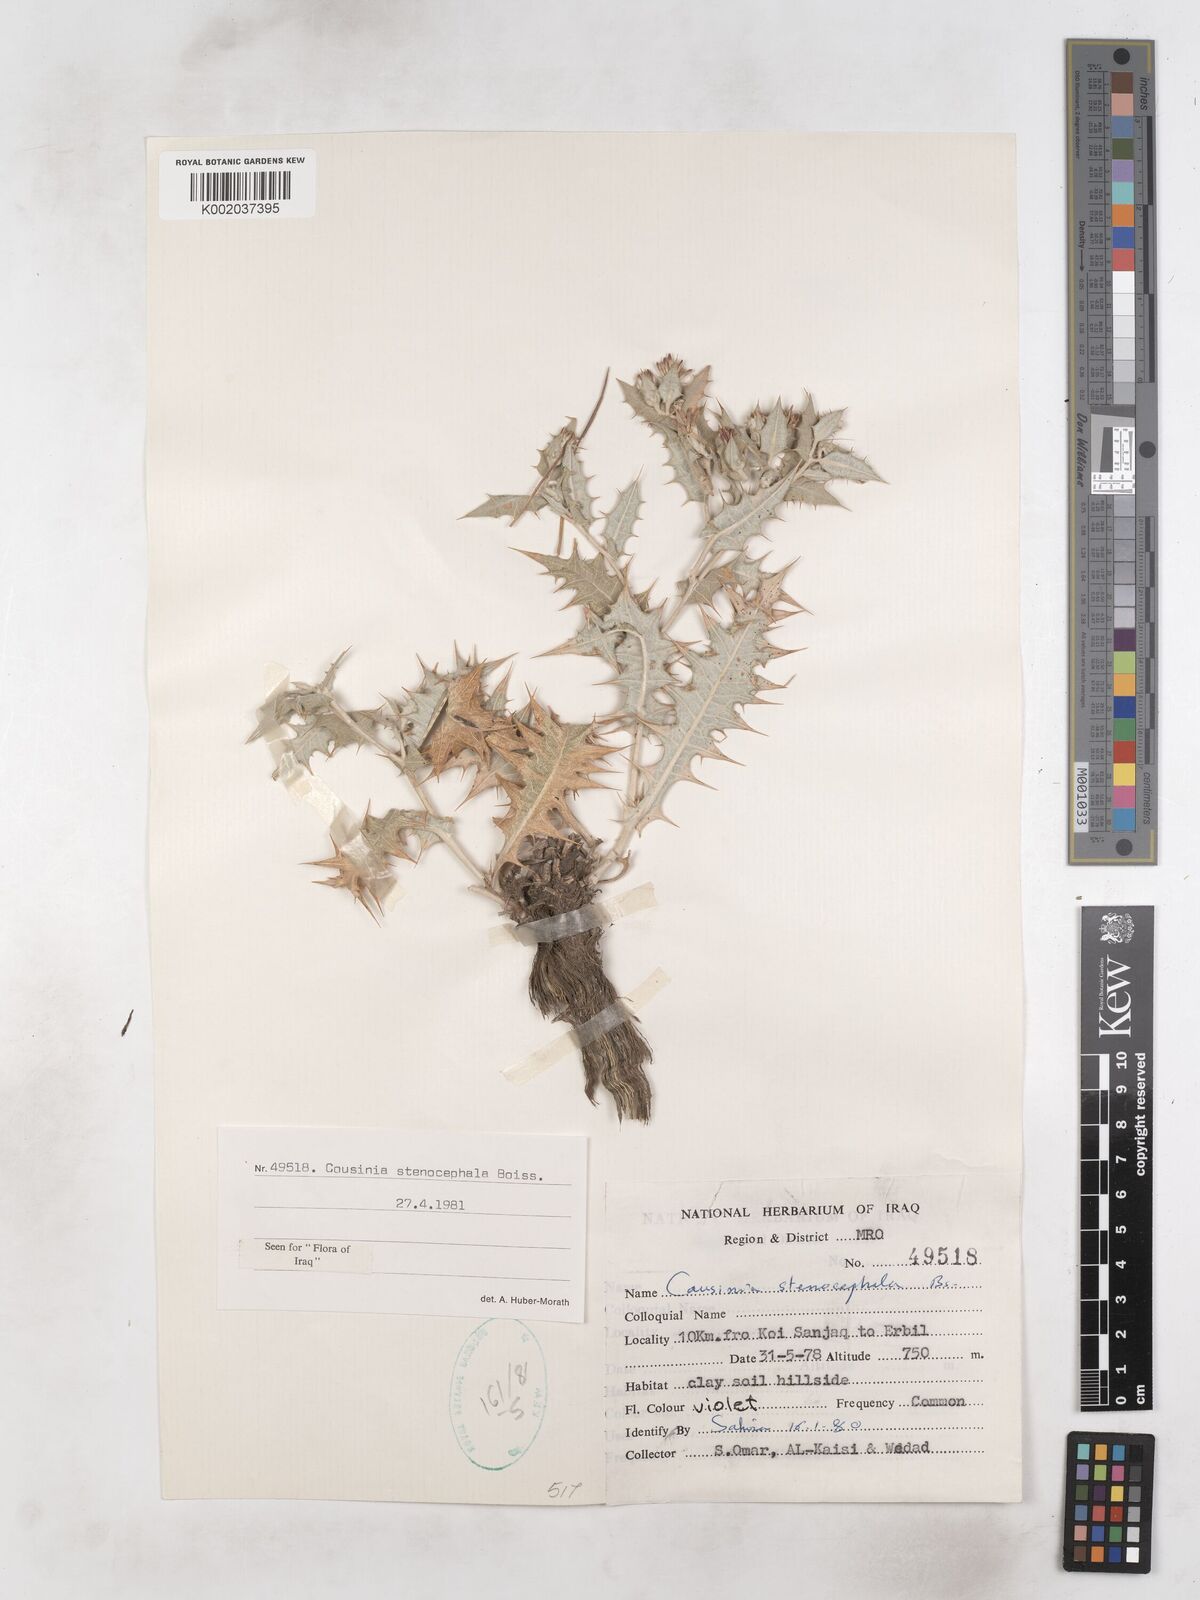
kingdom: Plantae
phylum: Tracheophyta
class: Magnoliopsida
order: Asterales
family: Asteraceae
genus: Cousinia
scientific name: Cousinia stenocephala
